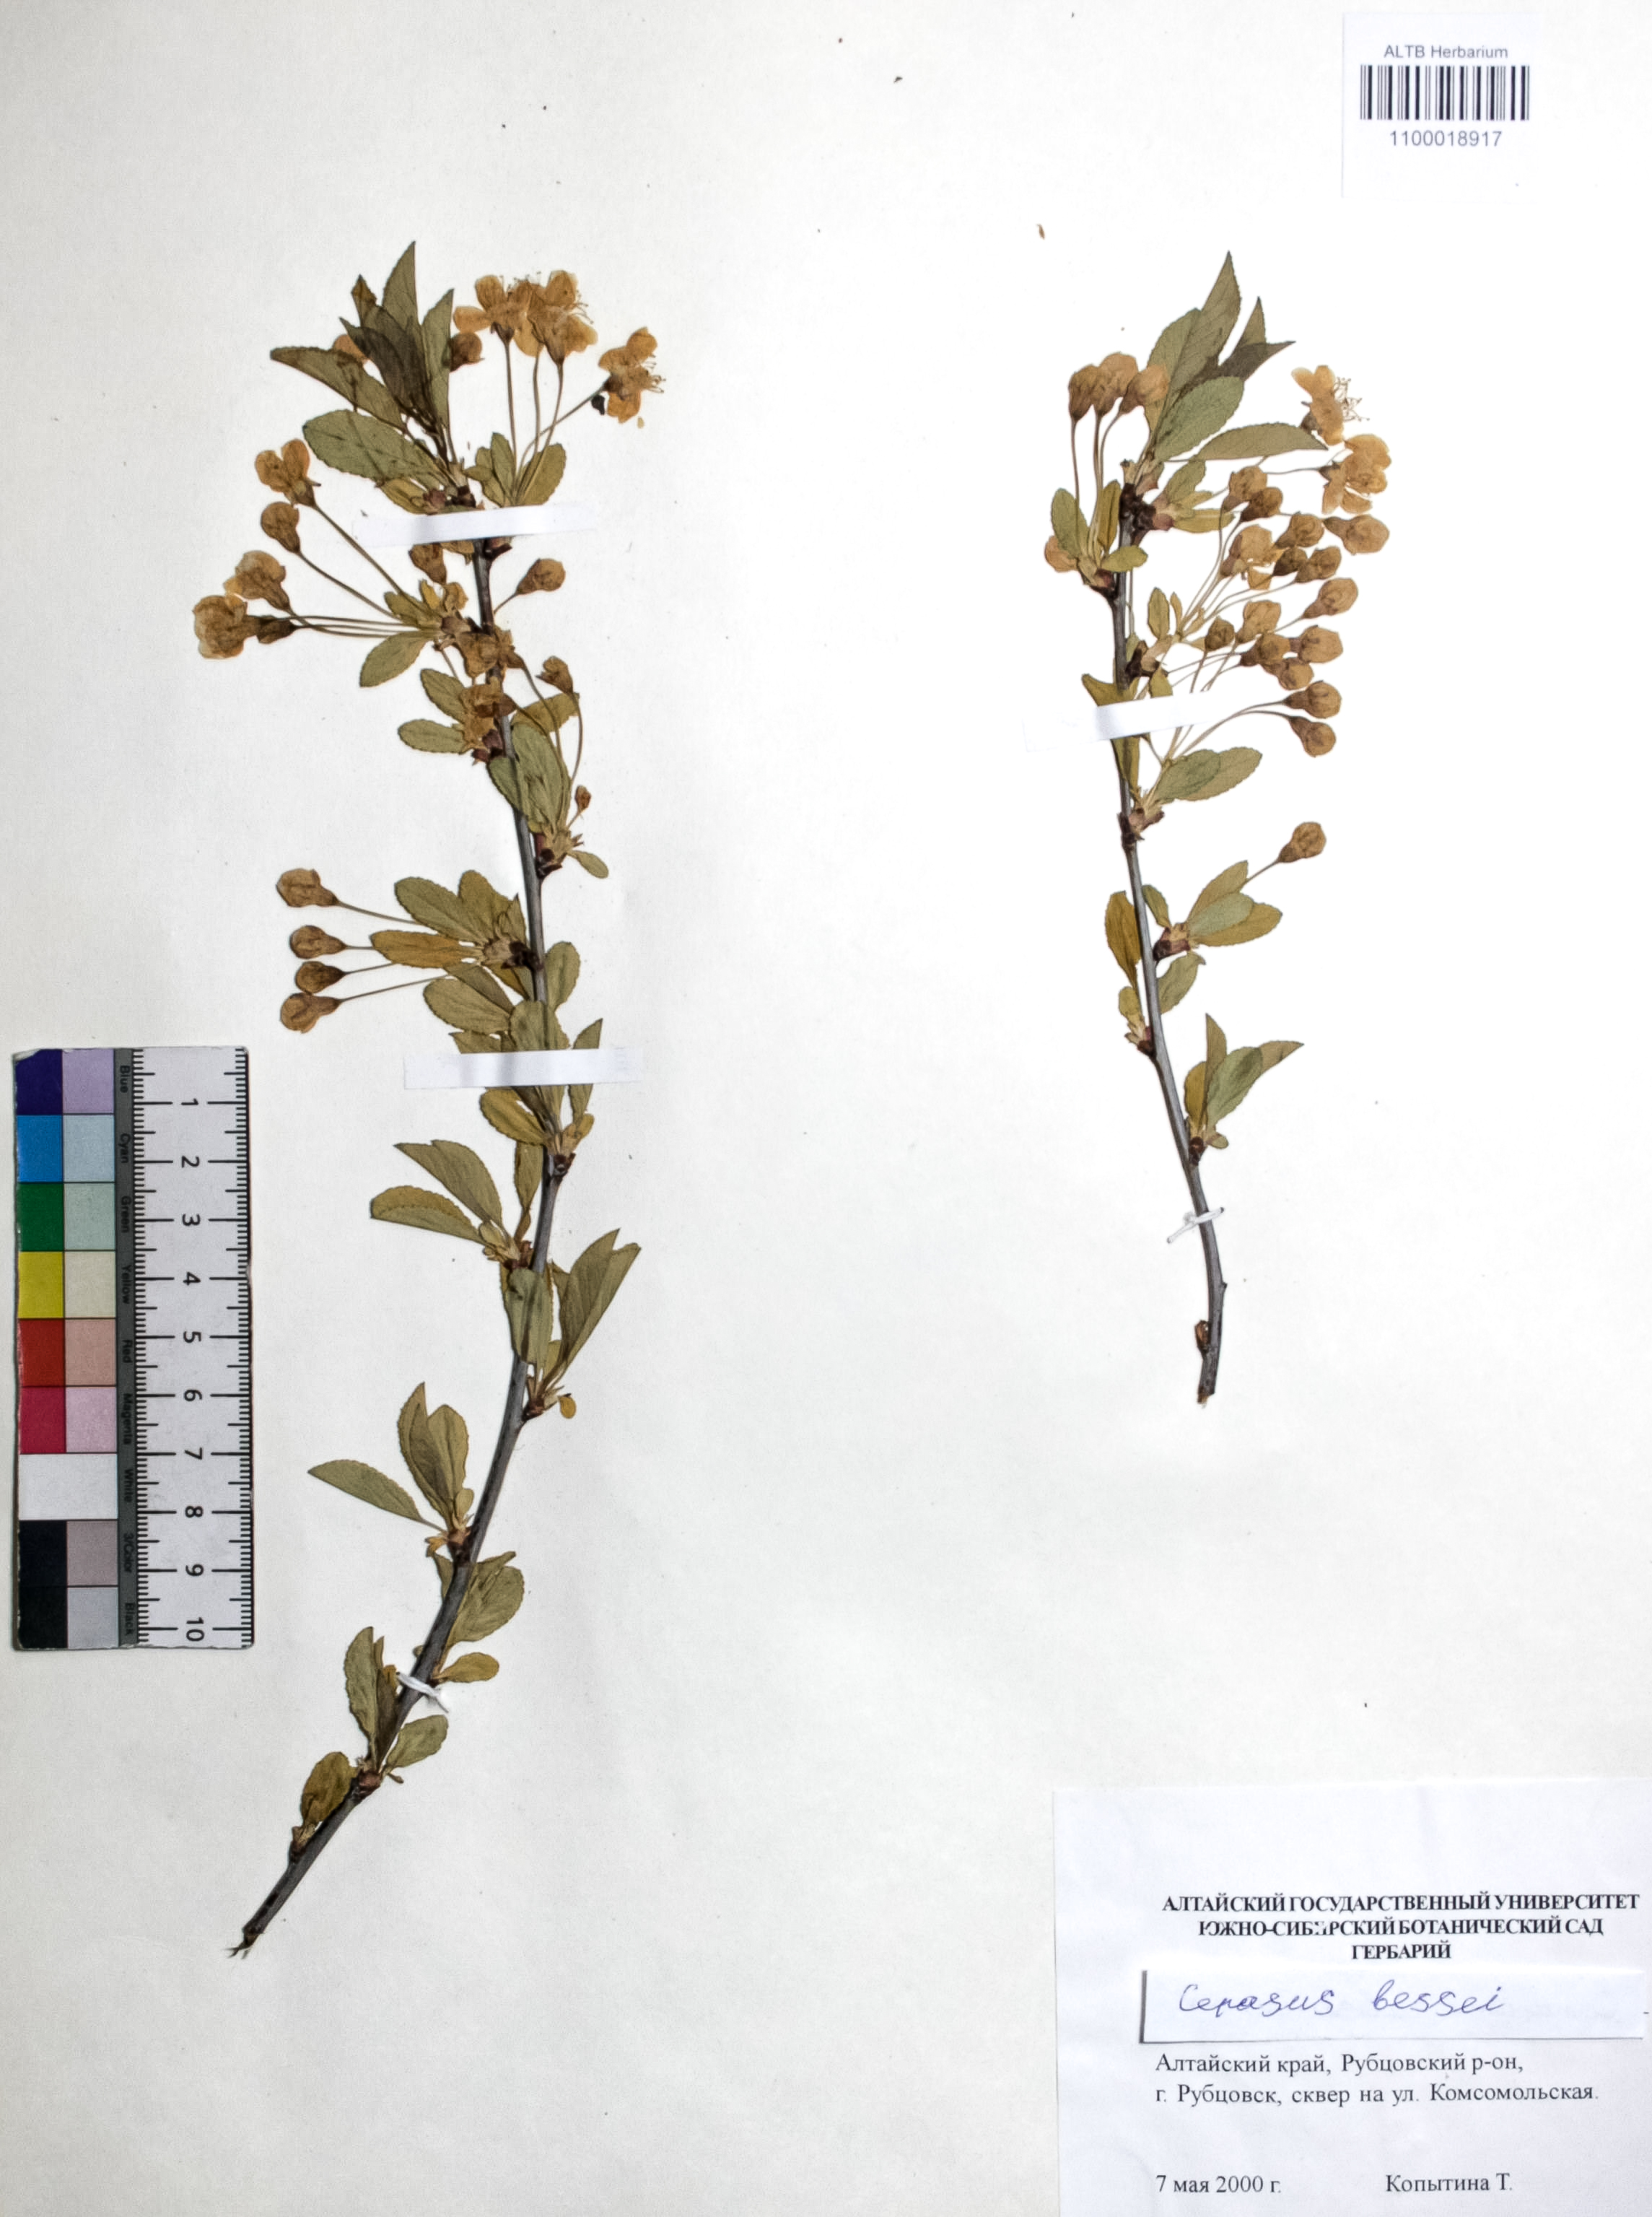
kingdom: Plantae
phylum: Tracheophyta
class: Magnoliopsida
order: Rosales
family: Rosaceae
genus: Prunus
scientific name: Prunus pumila
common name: Dwarf cherry
